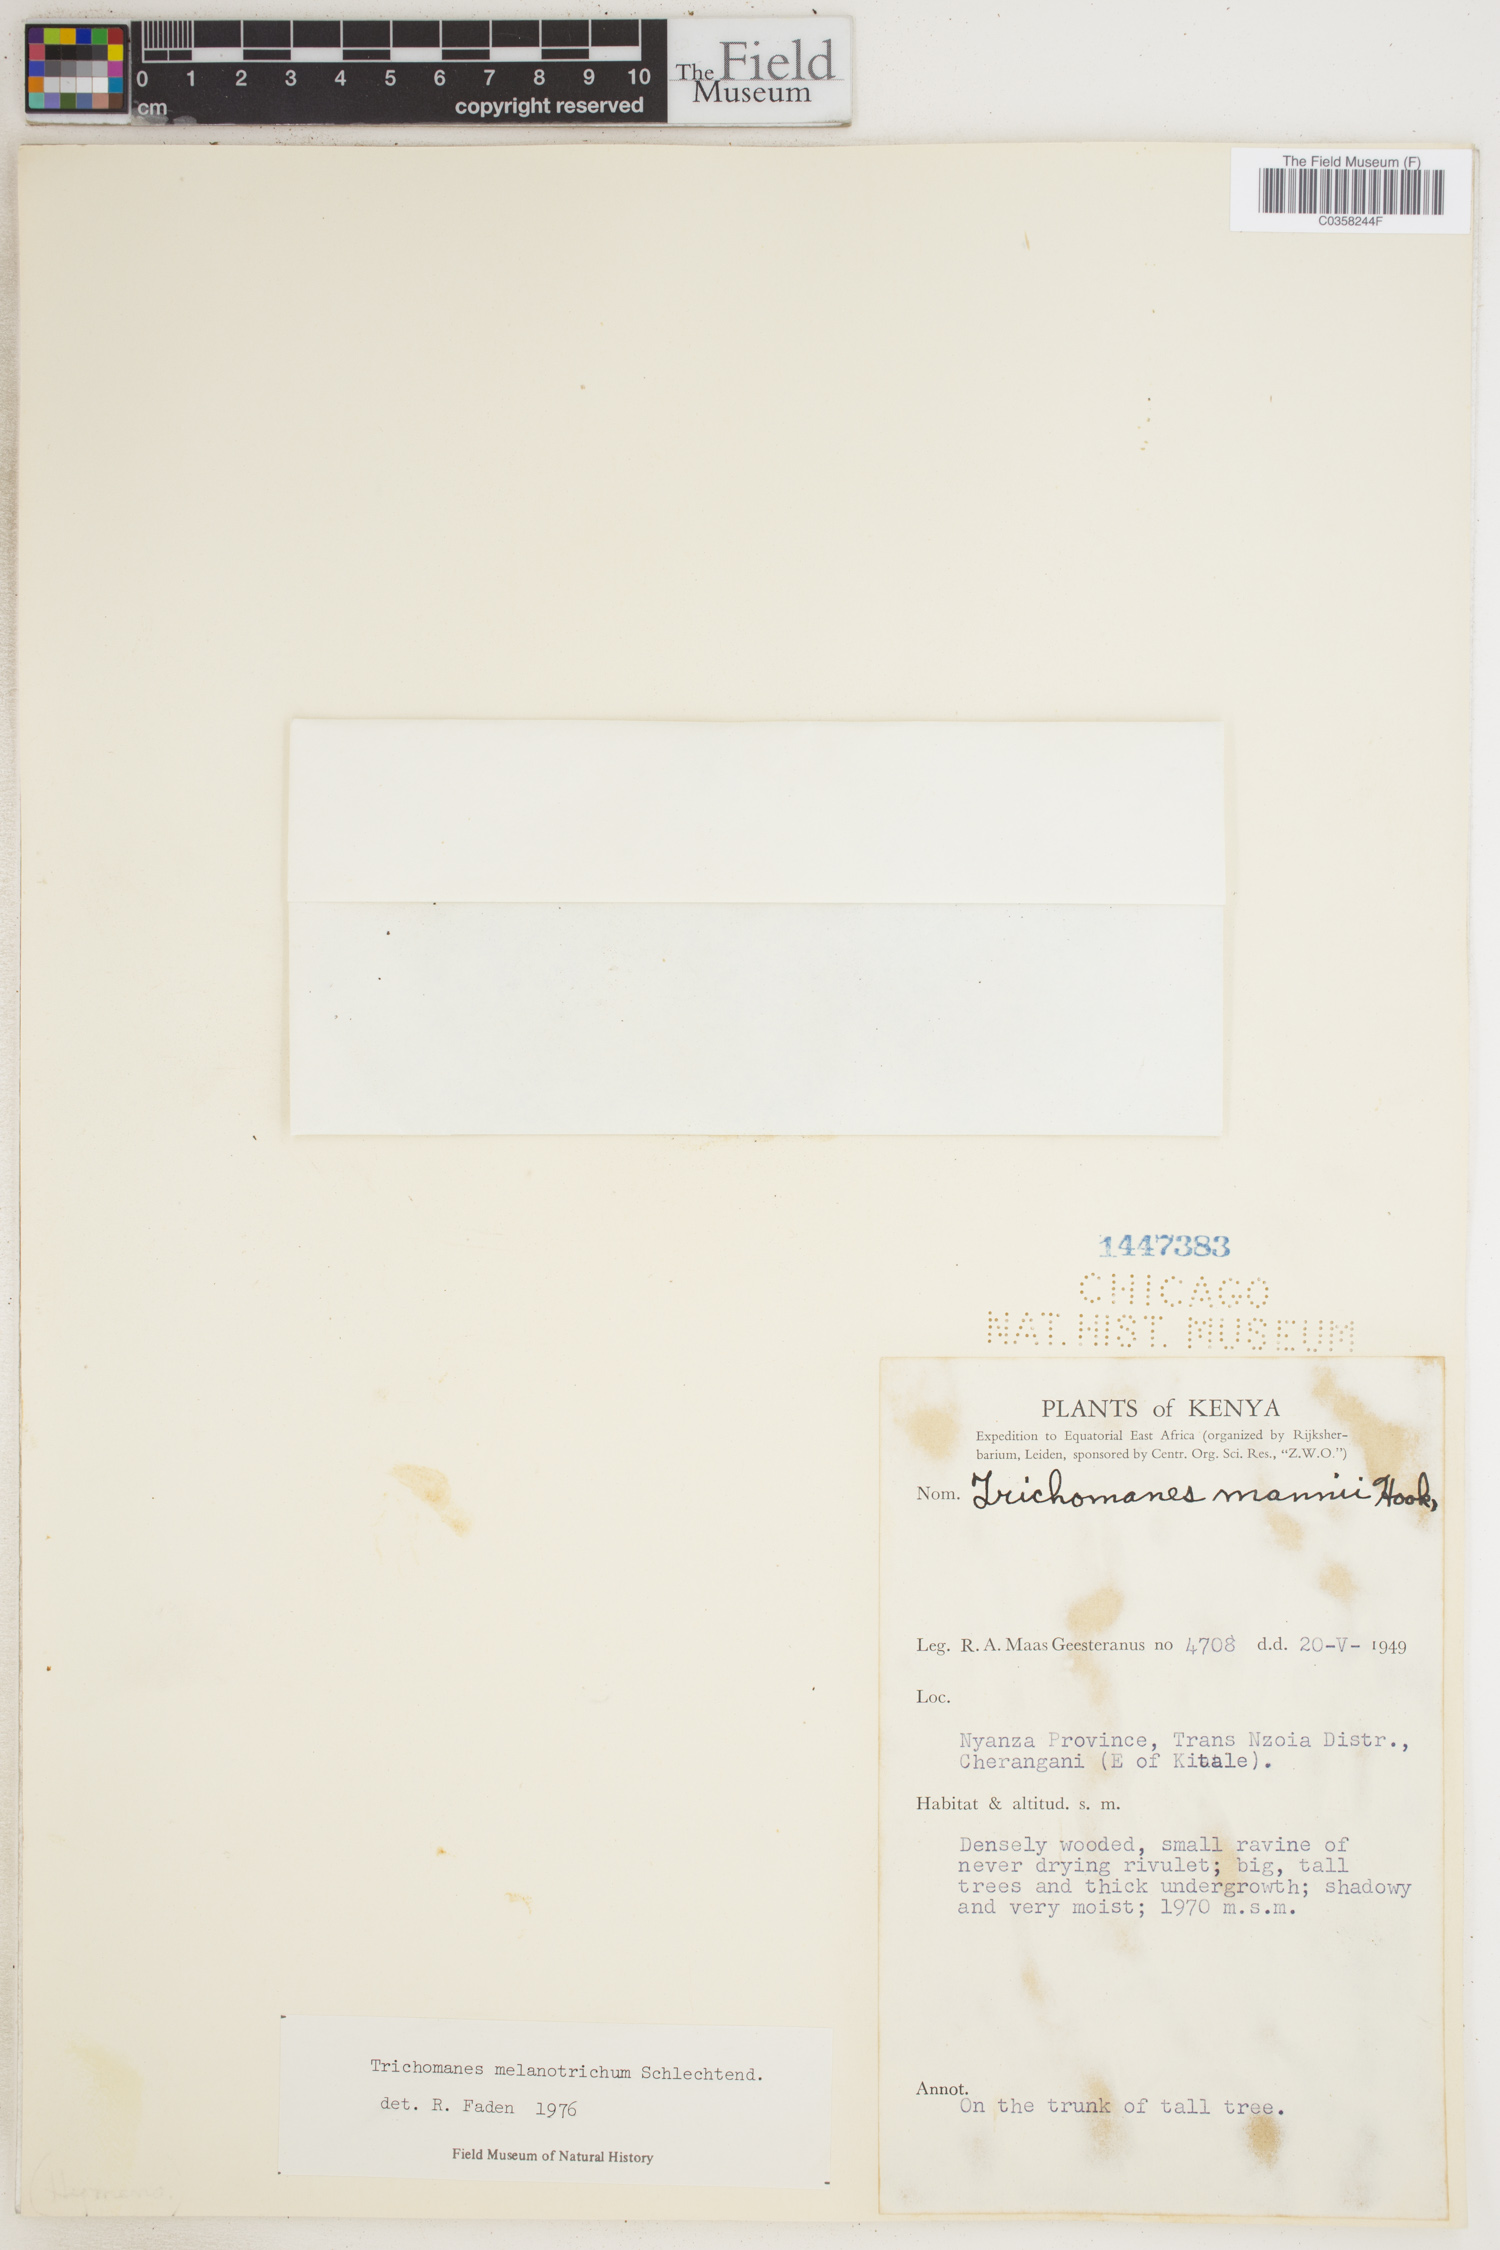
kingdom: Plantae
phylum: Tracheophyta
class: Polypodiopsida
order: Hymenophyllales
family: Hymenophyllaceae
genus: Crepidomanes
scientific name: Crepidomanes melanotrichum
